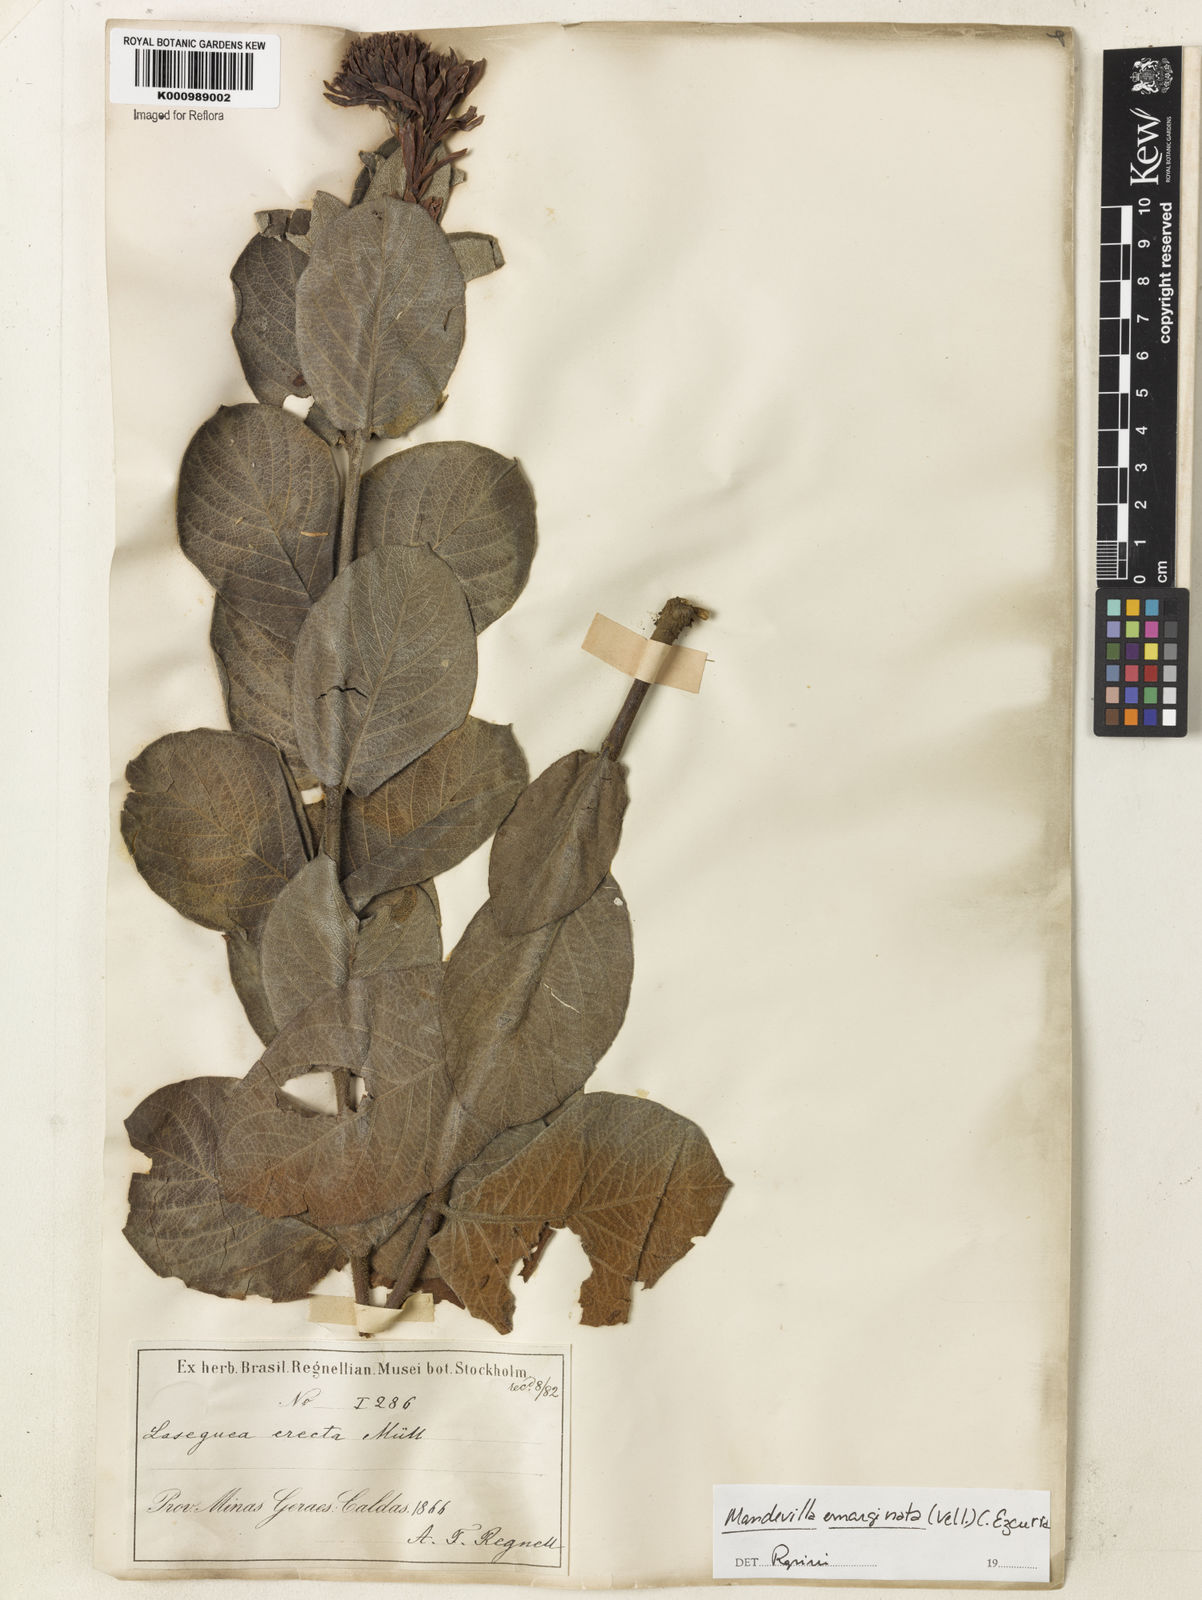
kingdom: Plantae
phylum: Tracheophyta
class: Magnoliopsida
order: Gentianales
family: Apocynaceae
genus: Mandevilla
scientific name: Mandevilla emarginata
